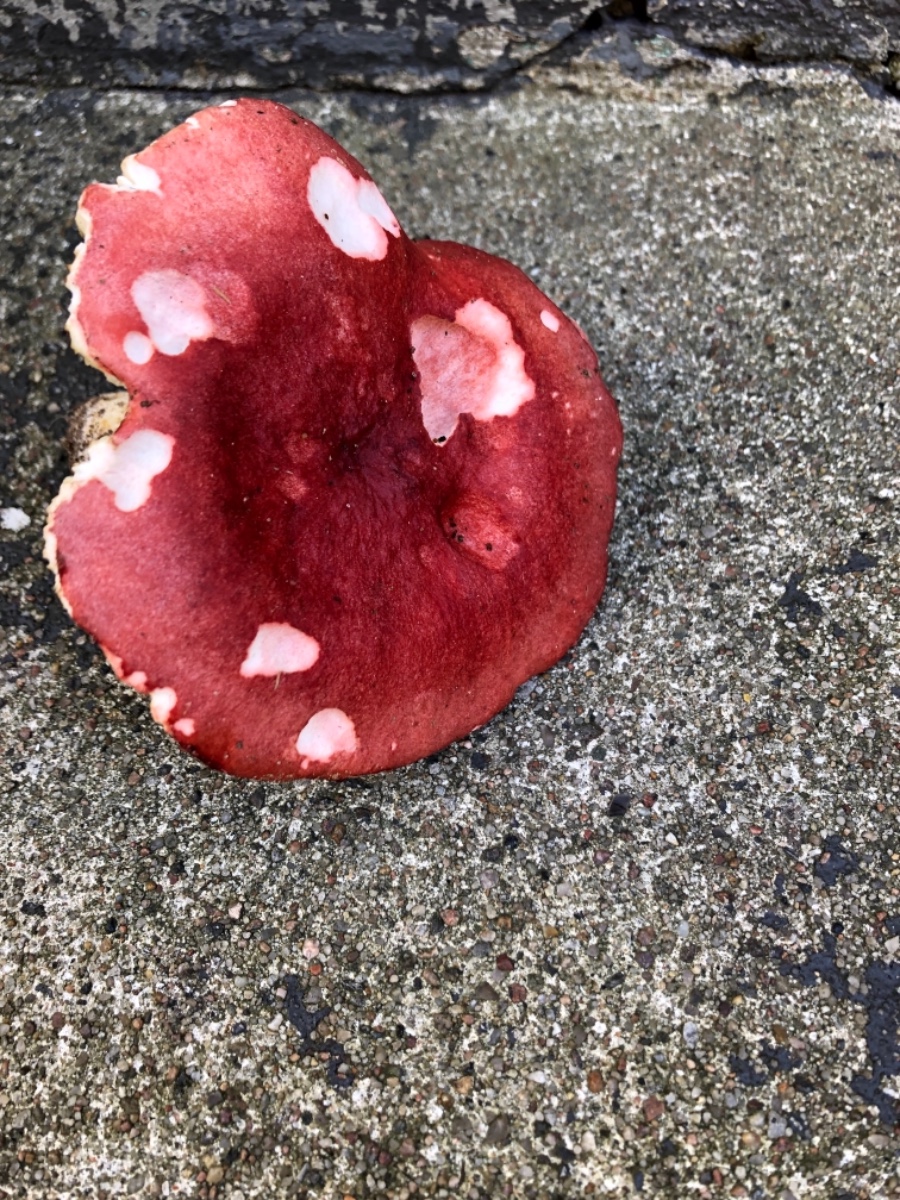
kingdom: Fungi
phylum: Basidiomycota
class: Agaricomycetes
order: Russulales
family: Russulaceae
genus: Russula
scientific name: Russula xerampelina
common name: hummer-skørhat
